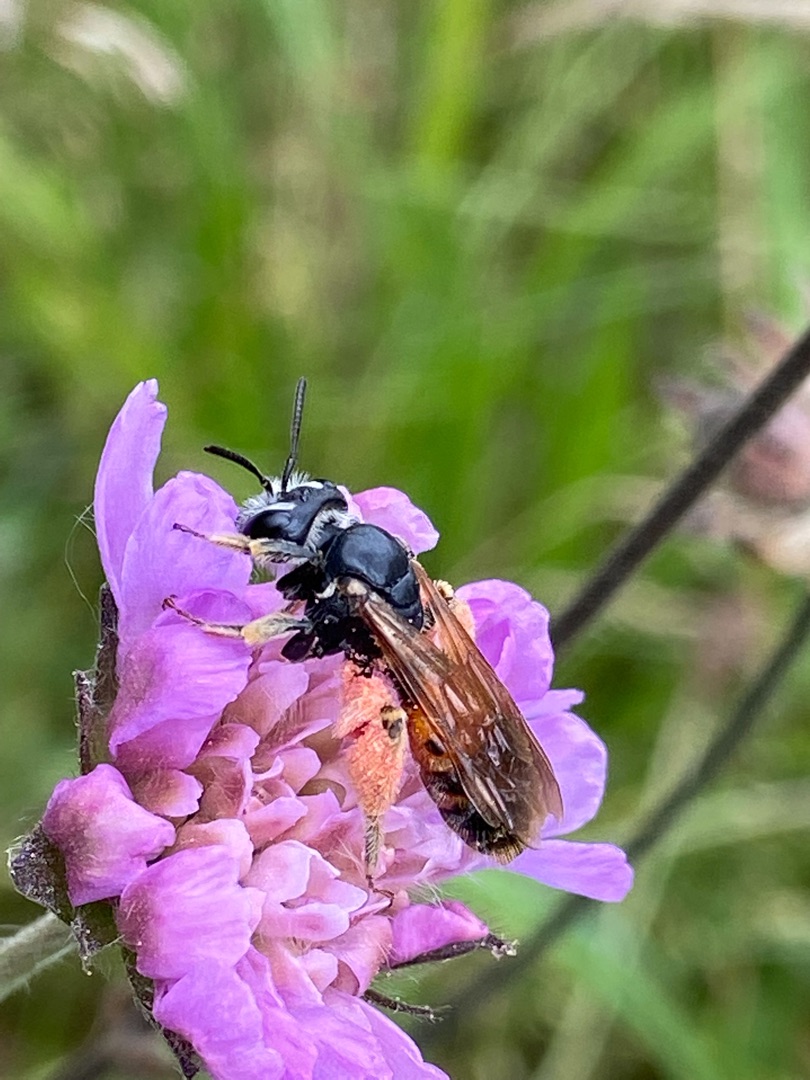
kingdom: Animalia
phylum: Arthropoda
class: Insecta
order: Hymenoptera
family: Andrenidae
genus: Andrena
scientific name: Andrena hattorfiana
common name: Blåhatjordbi
